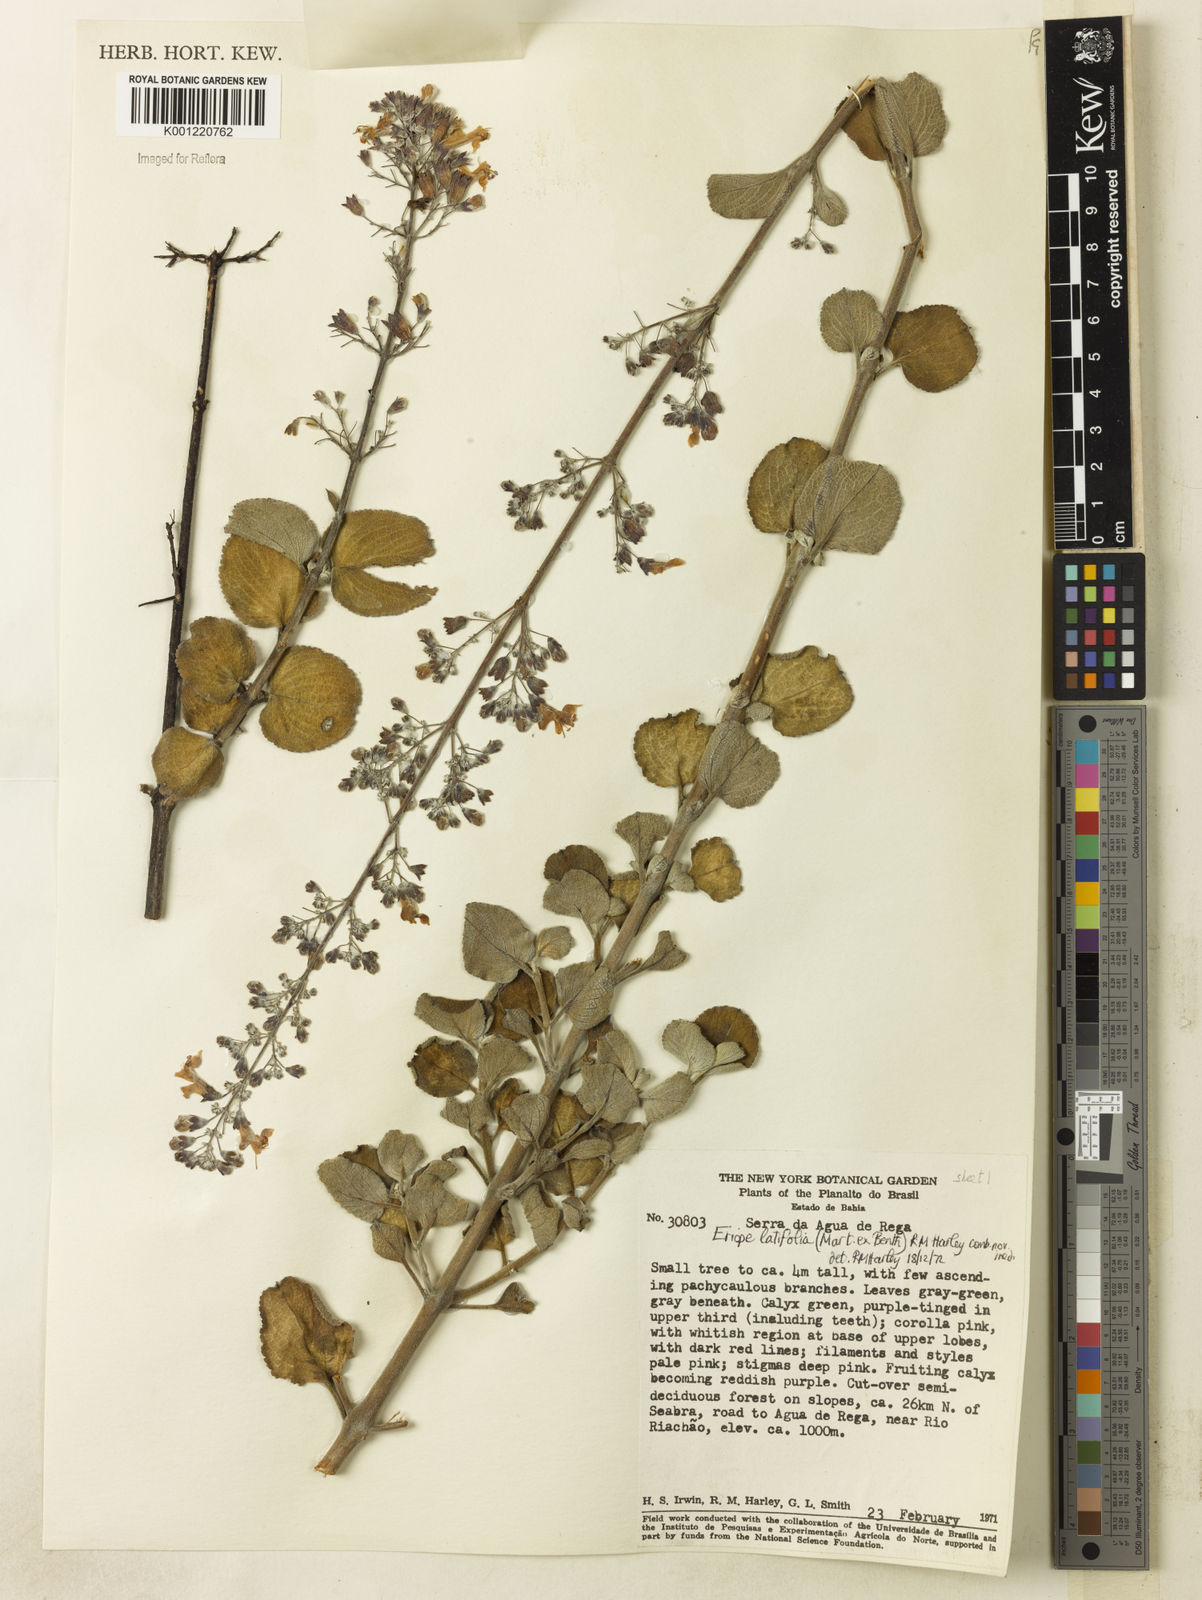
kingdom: Plantae
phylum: Tracheophyta
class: Magnoliopsida
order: Lamiales
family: Lamiaceae
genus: Eriope
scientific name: Eriope latifolia
